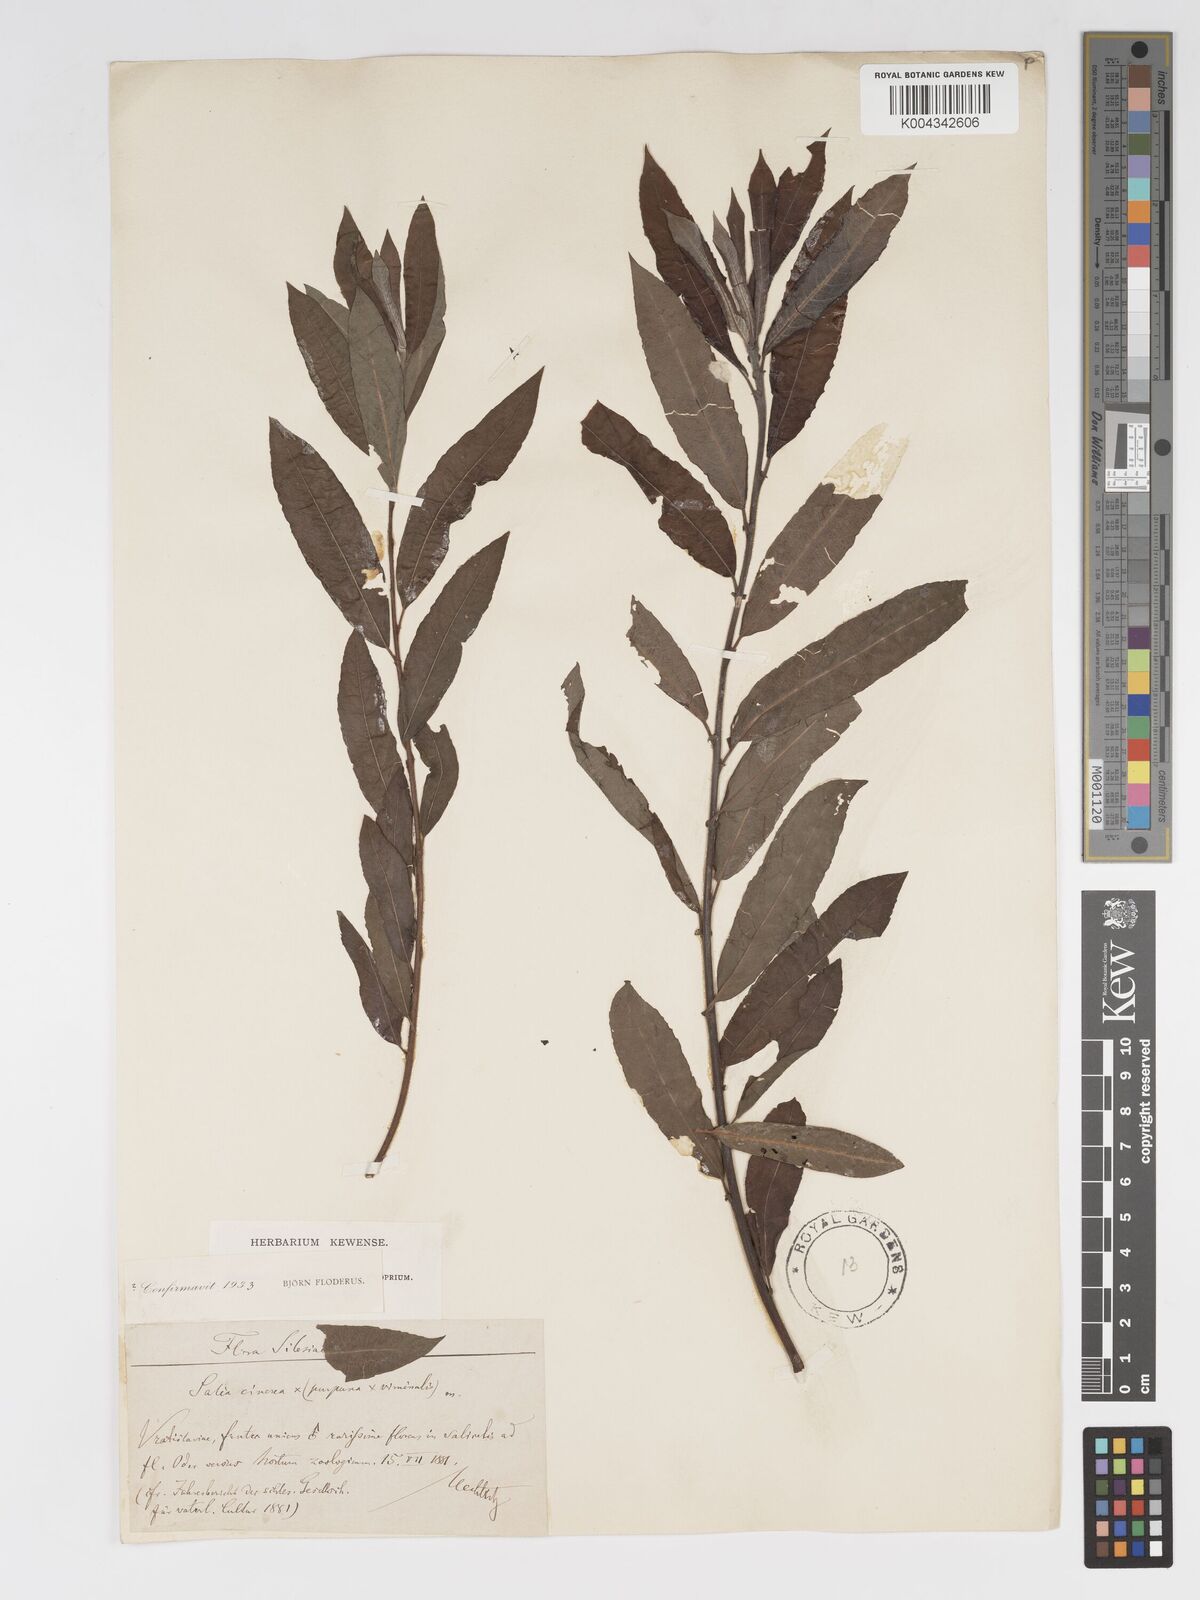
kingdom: Plantae
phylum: Tracheophyta
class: Magnoliopsida
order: Malpighiales
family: Salicaceae
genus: Salix
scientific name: Salix cinerea
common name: Common sallow
